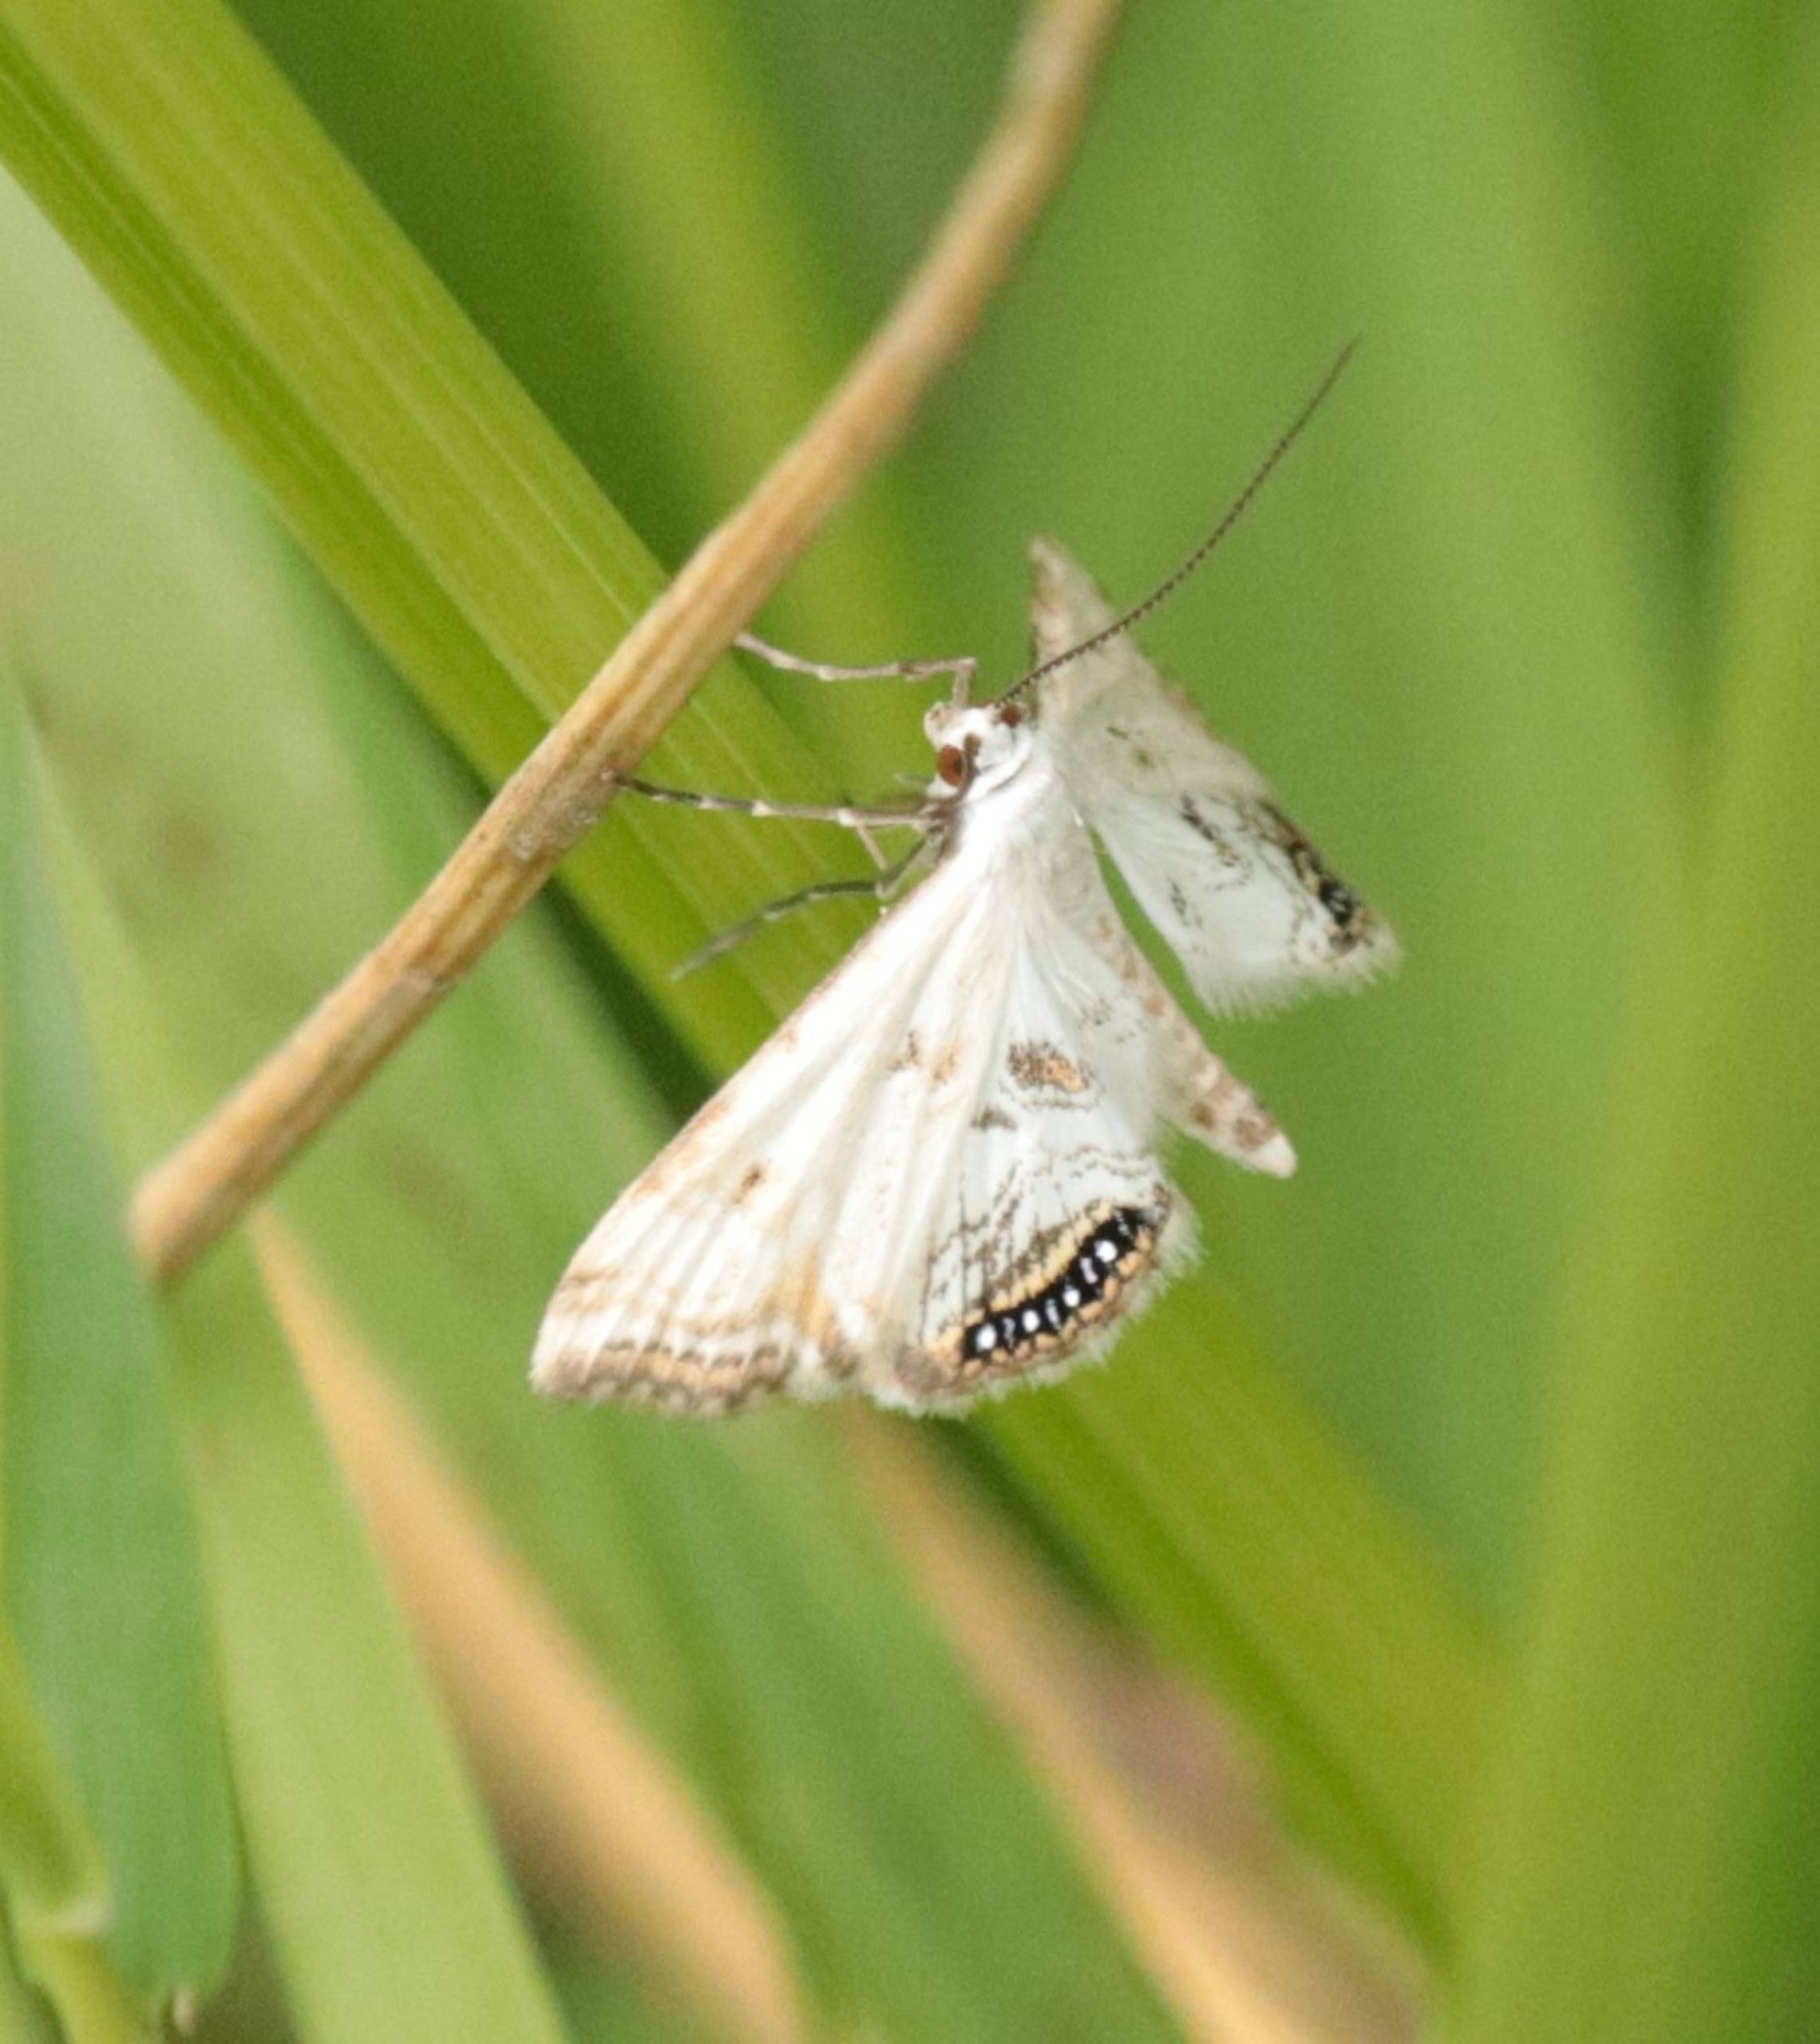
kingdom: Animalia
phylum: Arthropoda
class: Insecta
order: Lepidoptera
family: Crambidae
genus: Cataclysta
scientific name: Cataclysta lemnata
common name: Andemadhalvmøl
